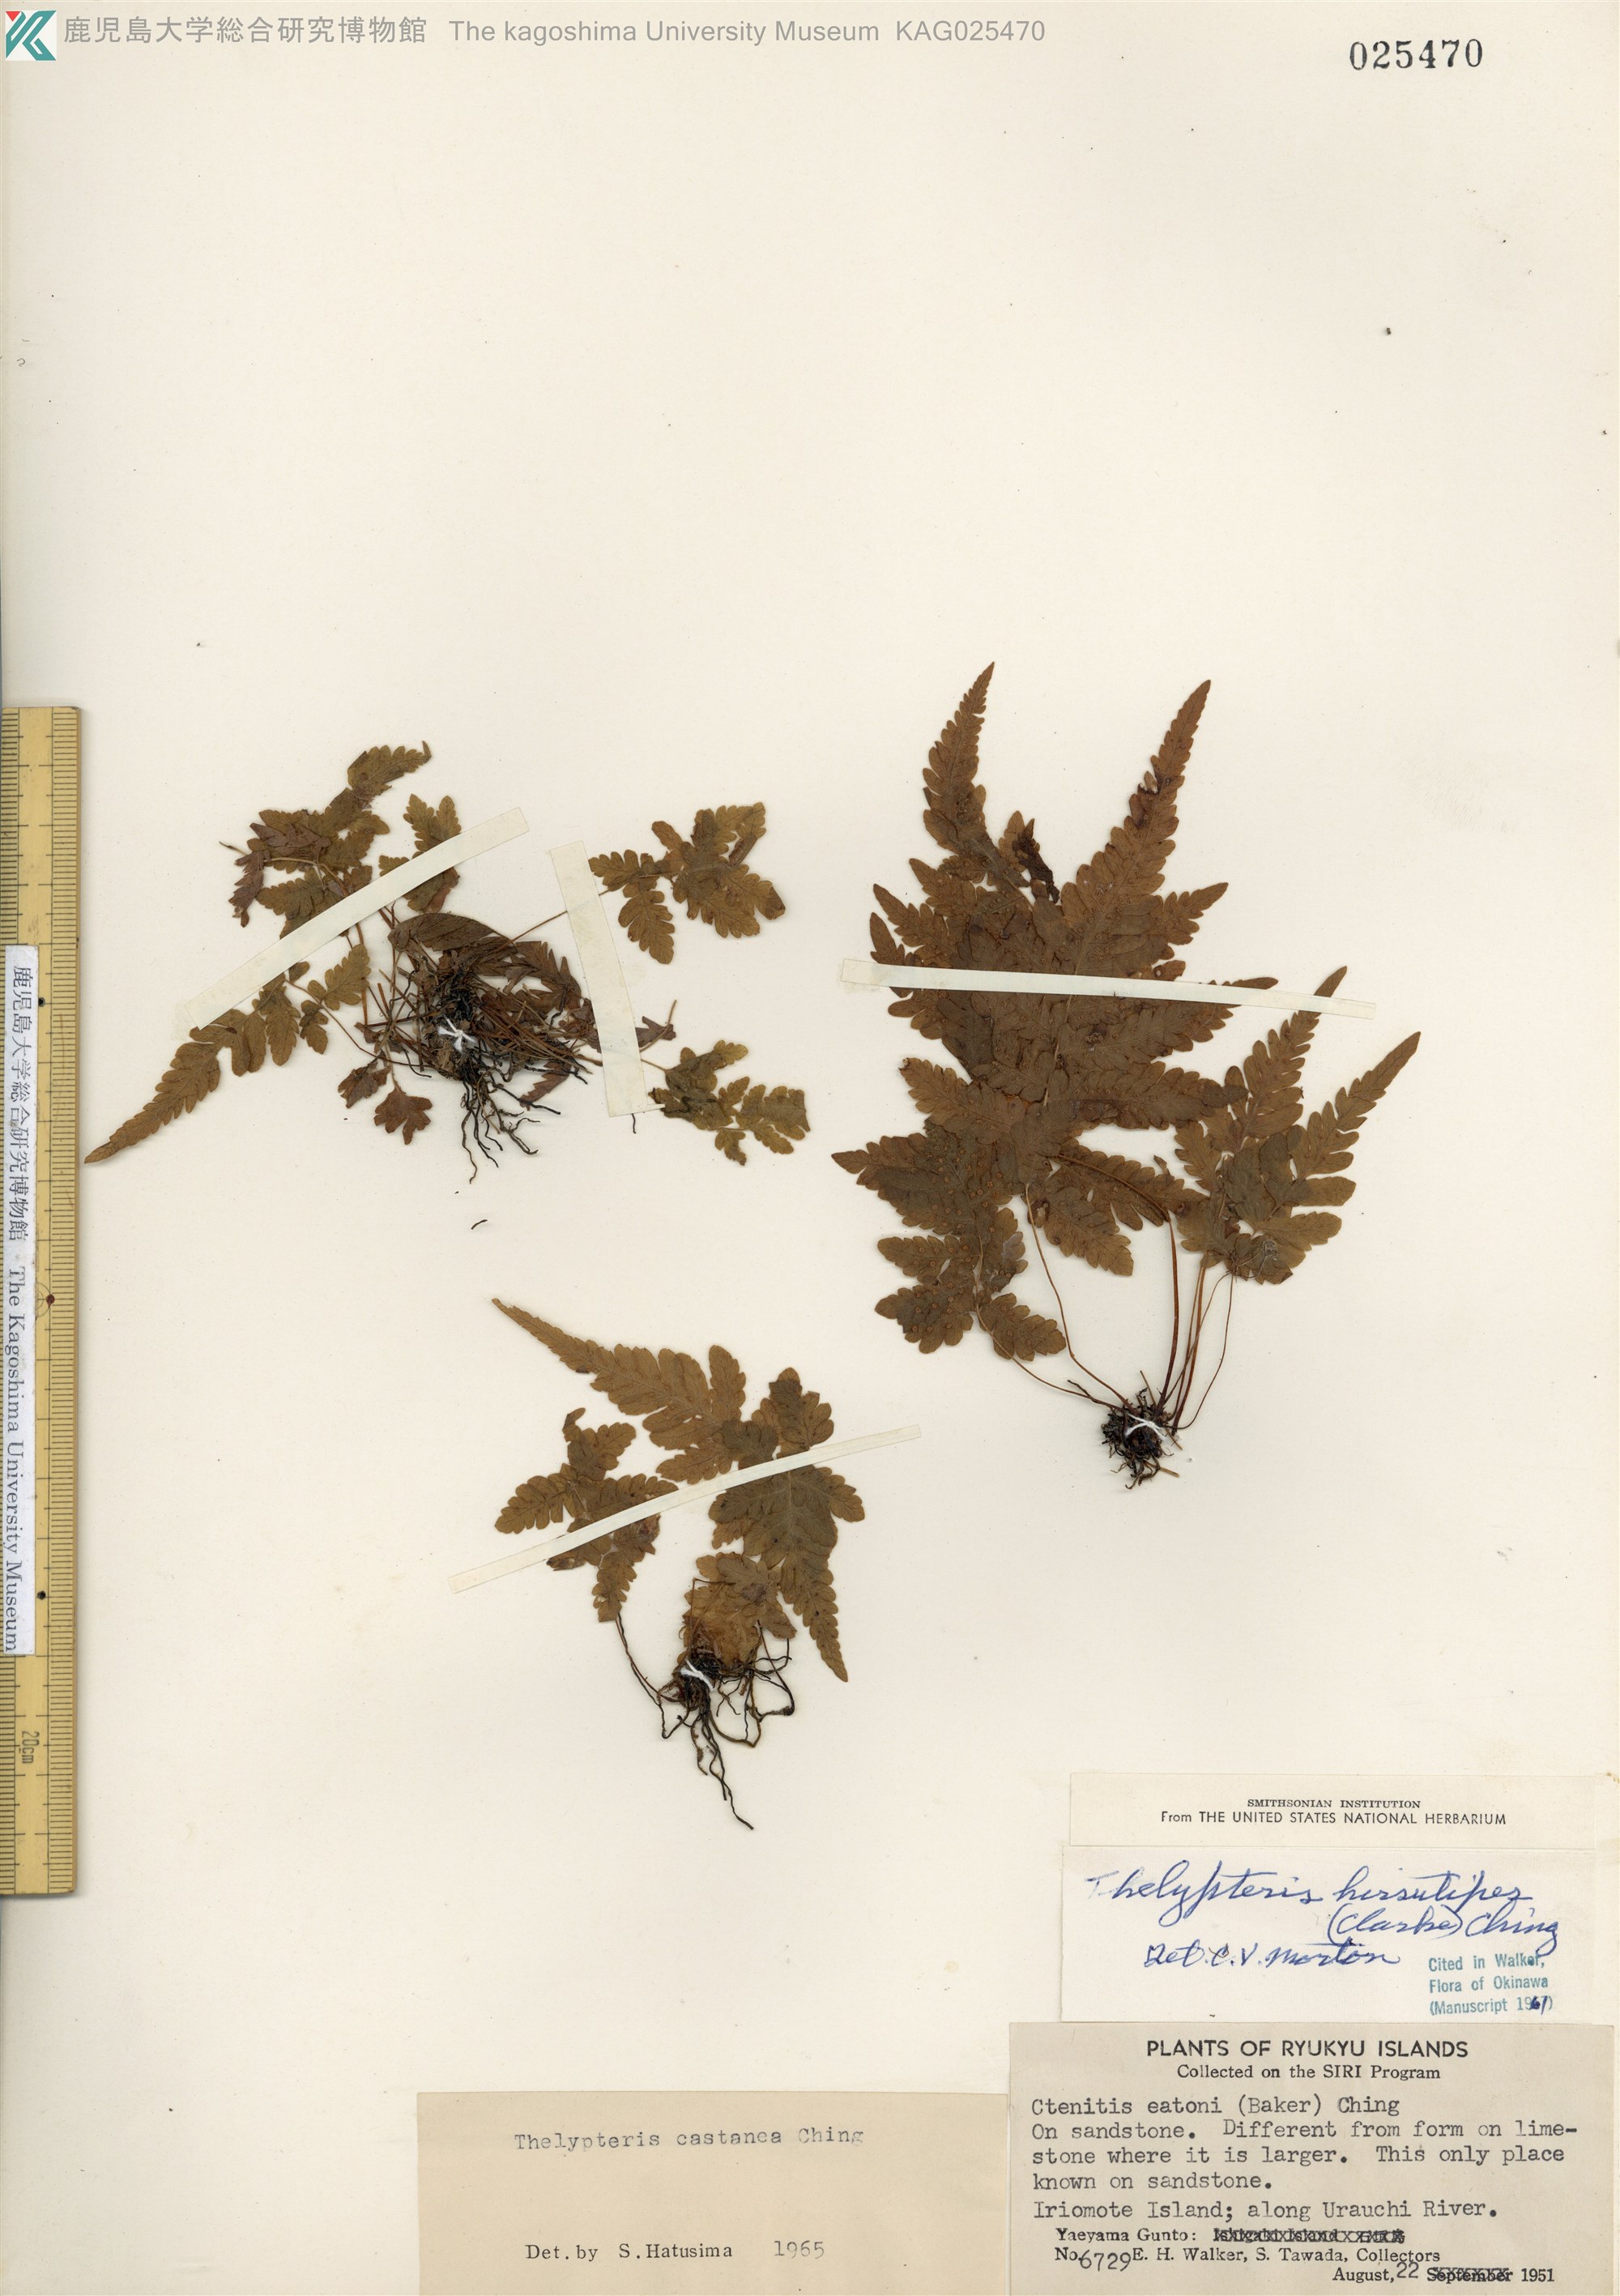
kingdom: Plantae
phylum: Tracheophyta
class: Polypodiopsida
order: Polypodiales
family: Thelypteridaceae
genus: Metathelypteris
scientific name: Metathelypteris uraiensis
